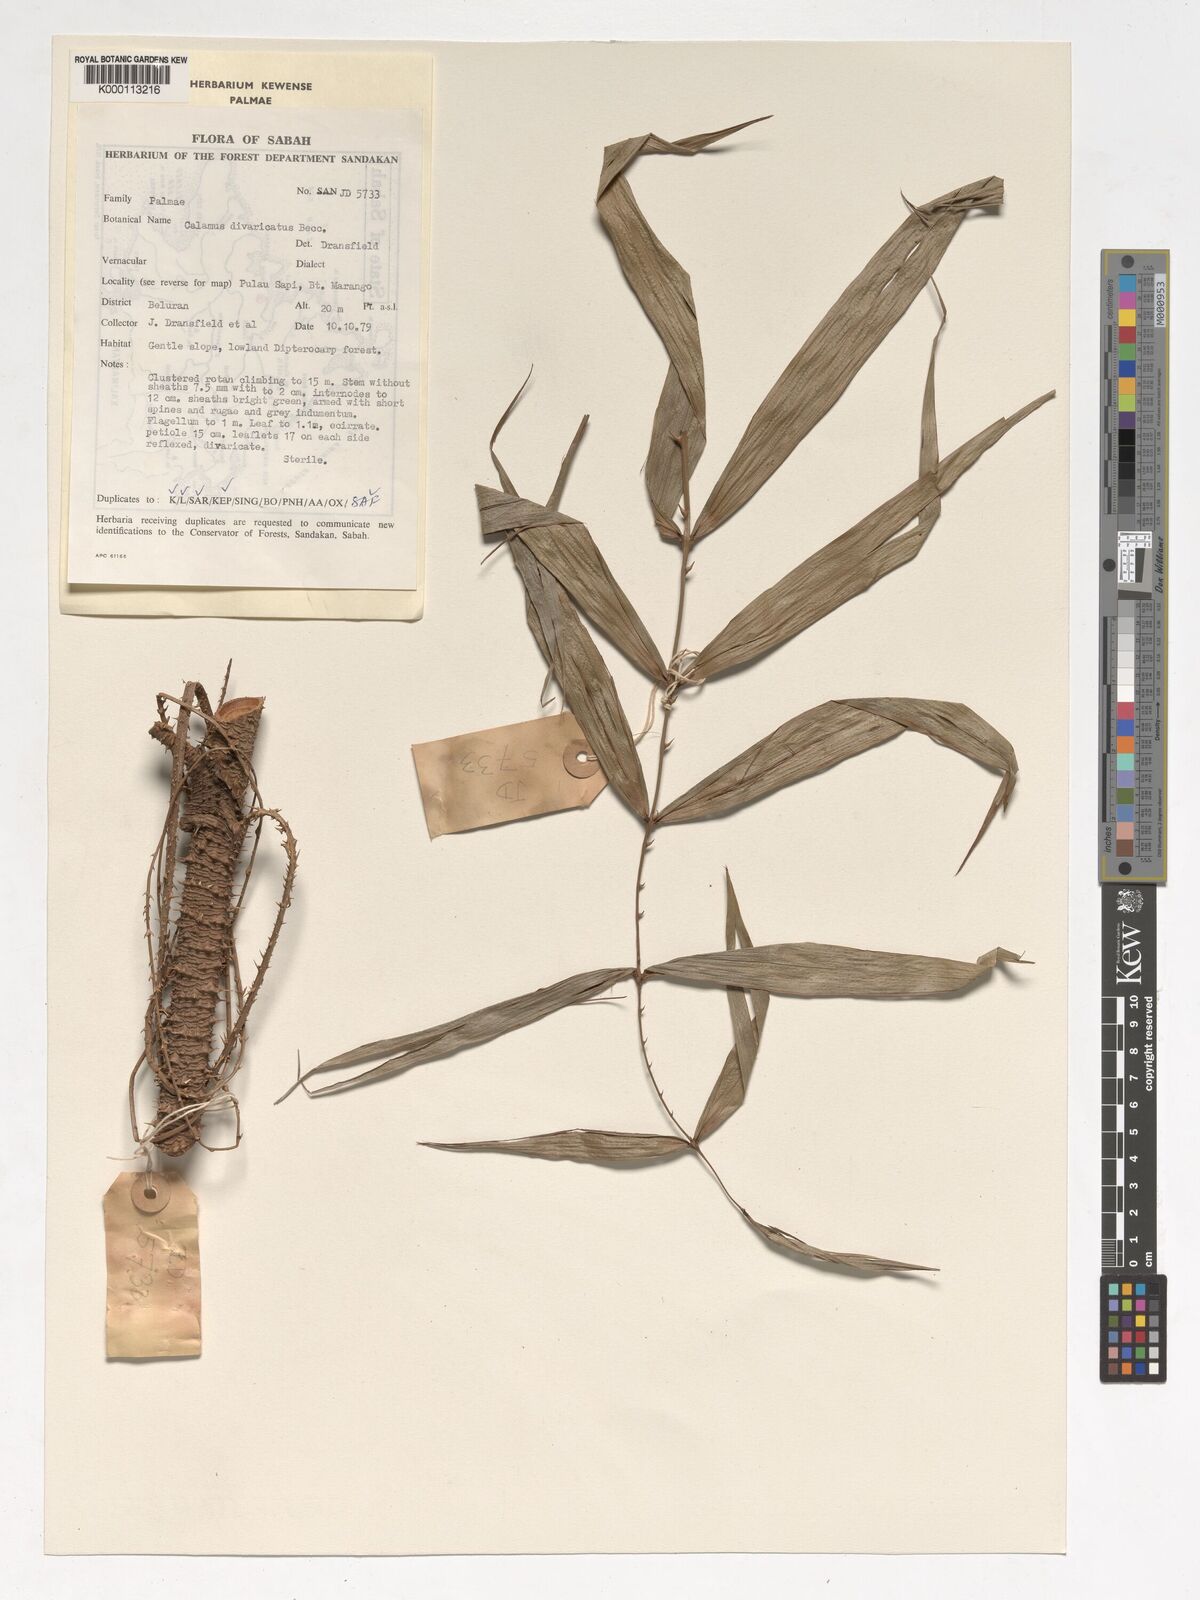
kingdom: Plantae
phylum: Tracheophyta
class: Liliopsida
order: Arecales
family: Arecaceae
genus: Calamus
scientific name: Calamus divaricatus
